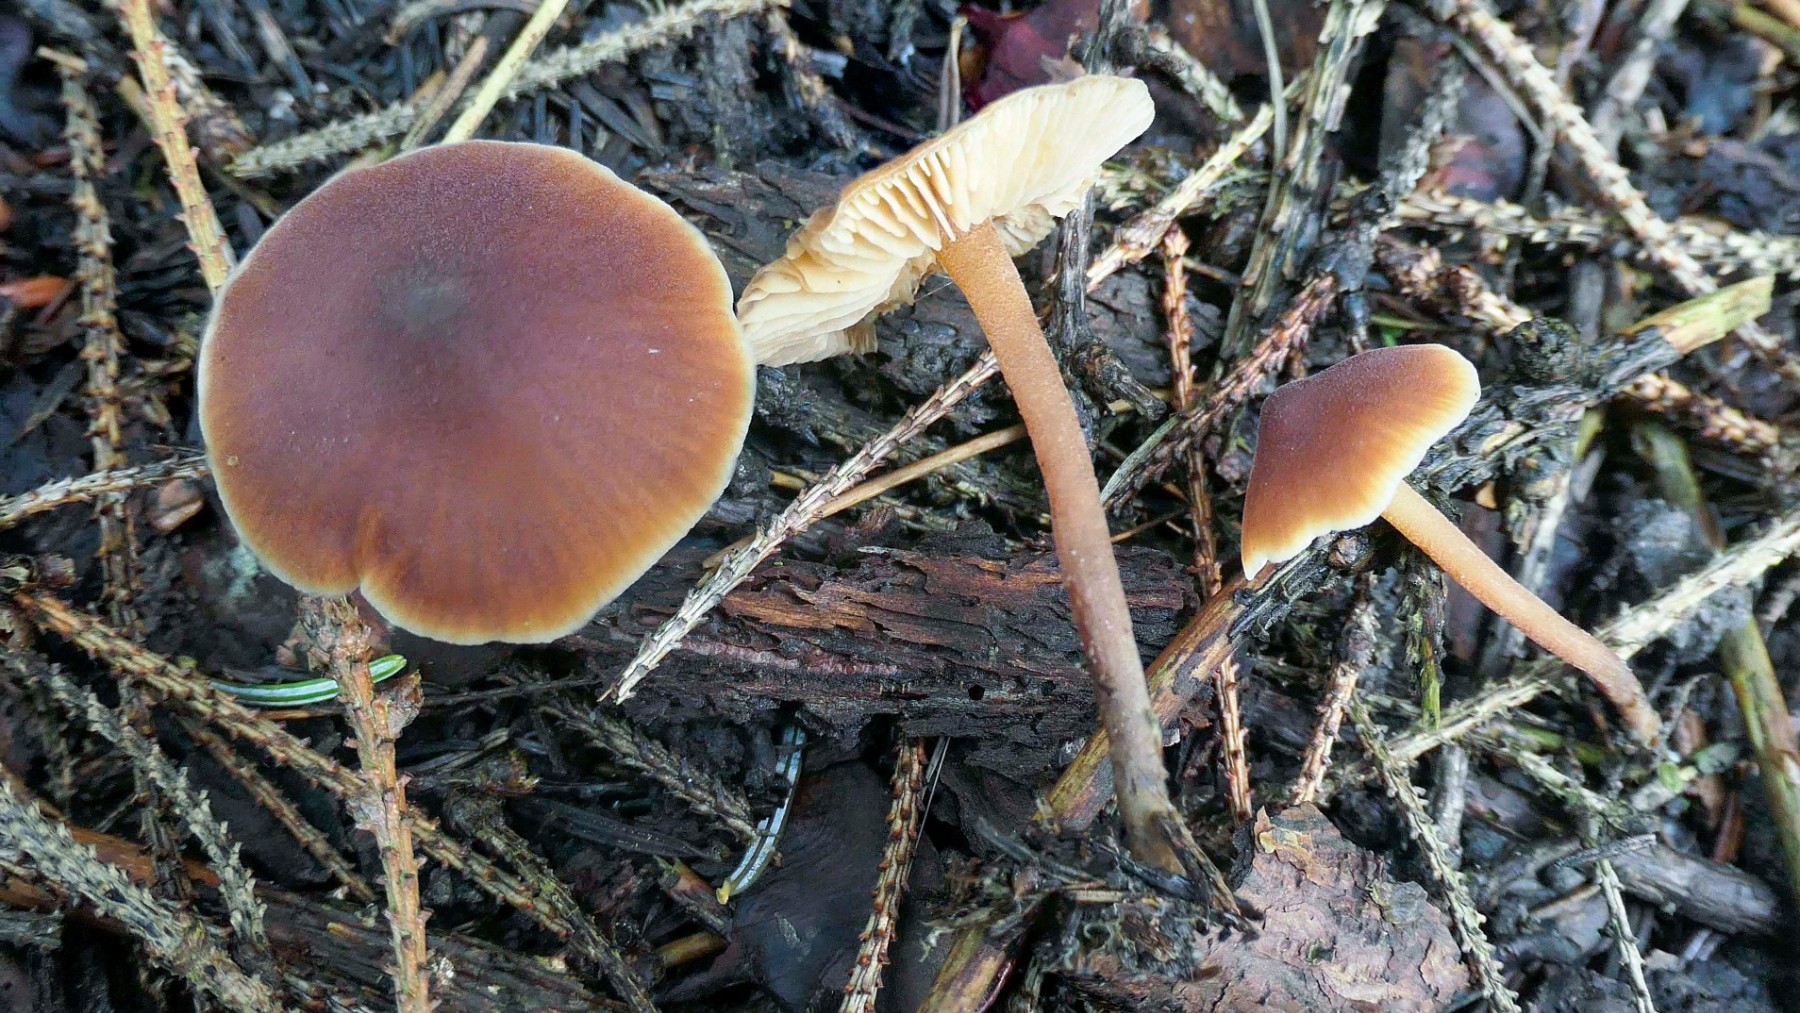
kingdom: Fungi
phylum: Basidiomycota
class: Agaricomycetes
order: Agaricales
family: Macrocystidiaceae
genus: Macrocystidia
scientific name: Macrocystidia cucumis
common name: agurkehat
